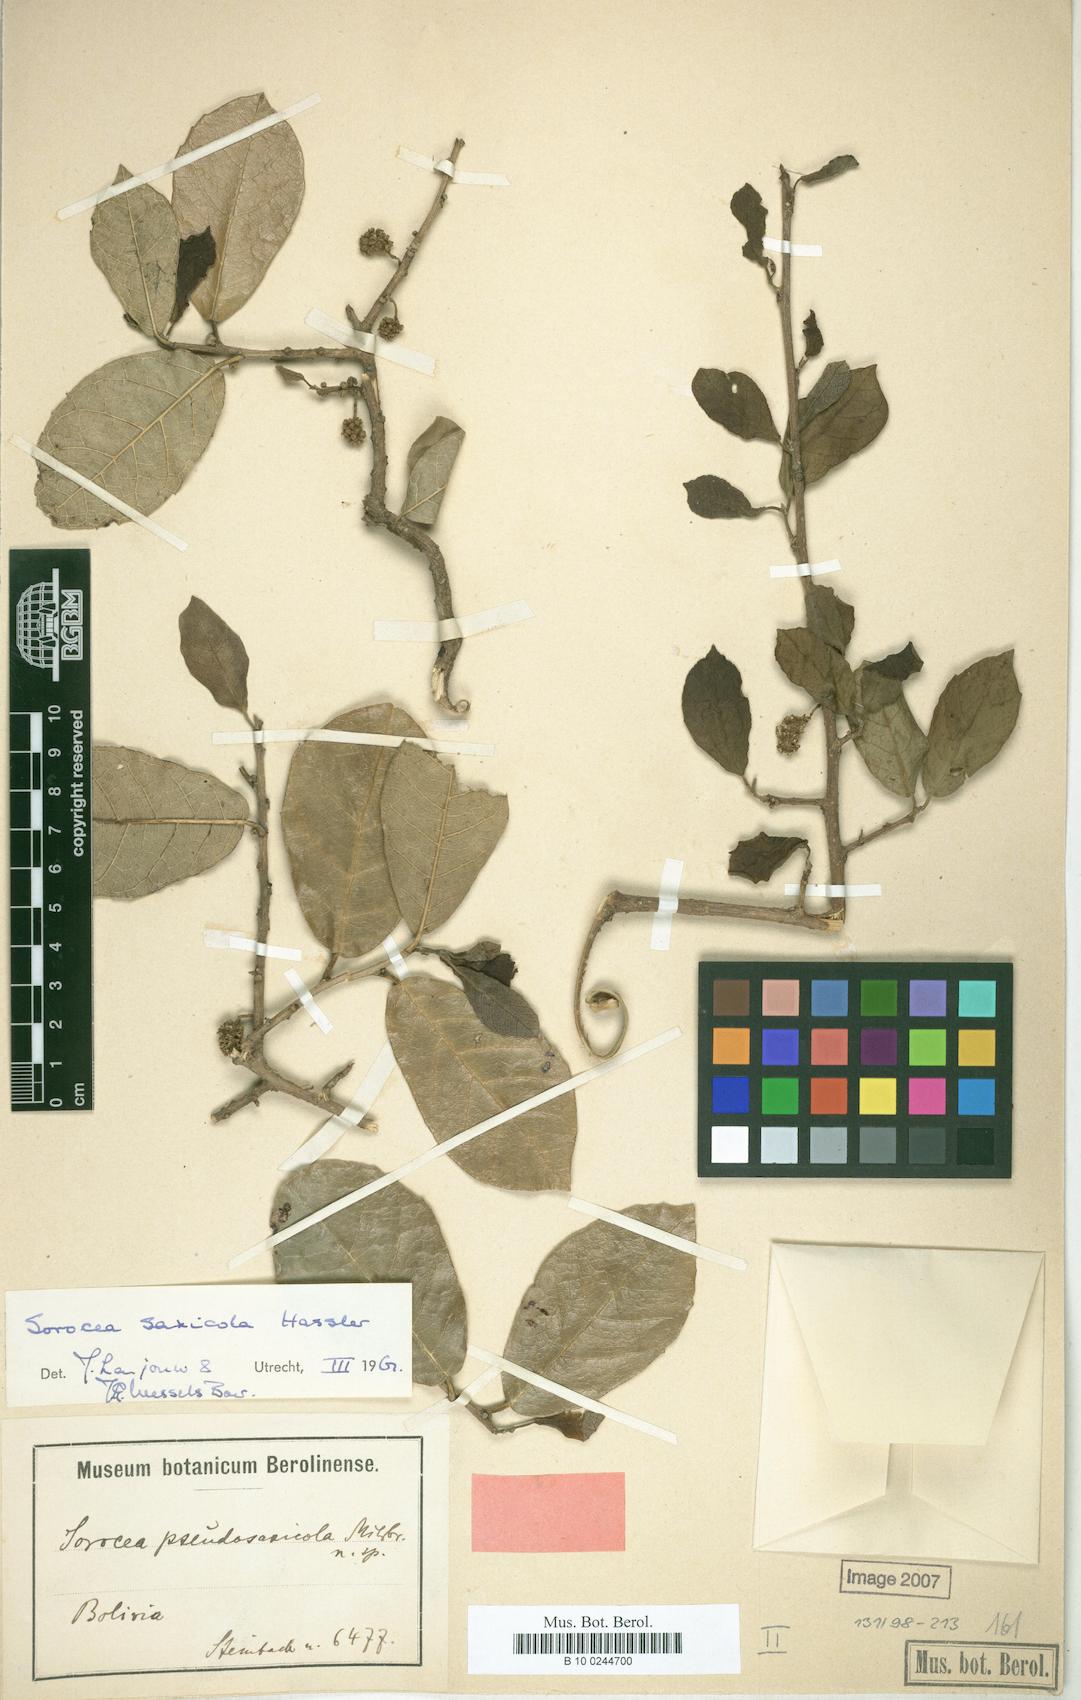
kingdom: Plantae
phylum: Tracheophyta
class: Magnoliopsida
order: Rosales
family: Moraceae
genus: Sorocea
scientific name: Sorocea sprucei
